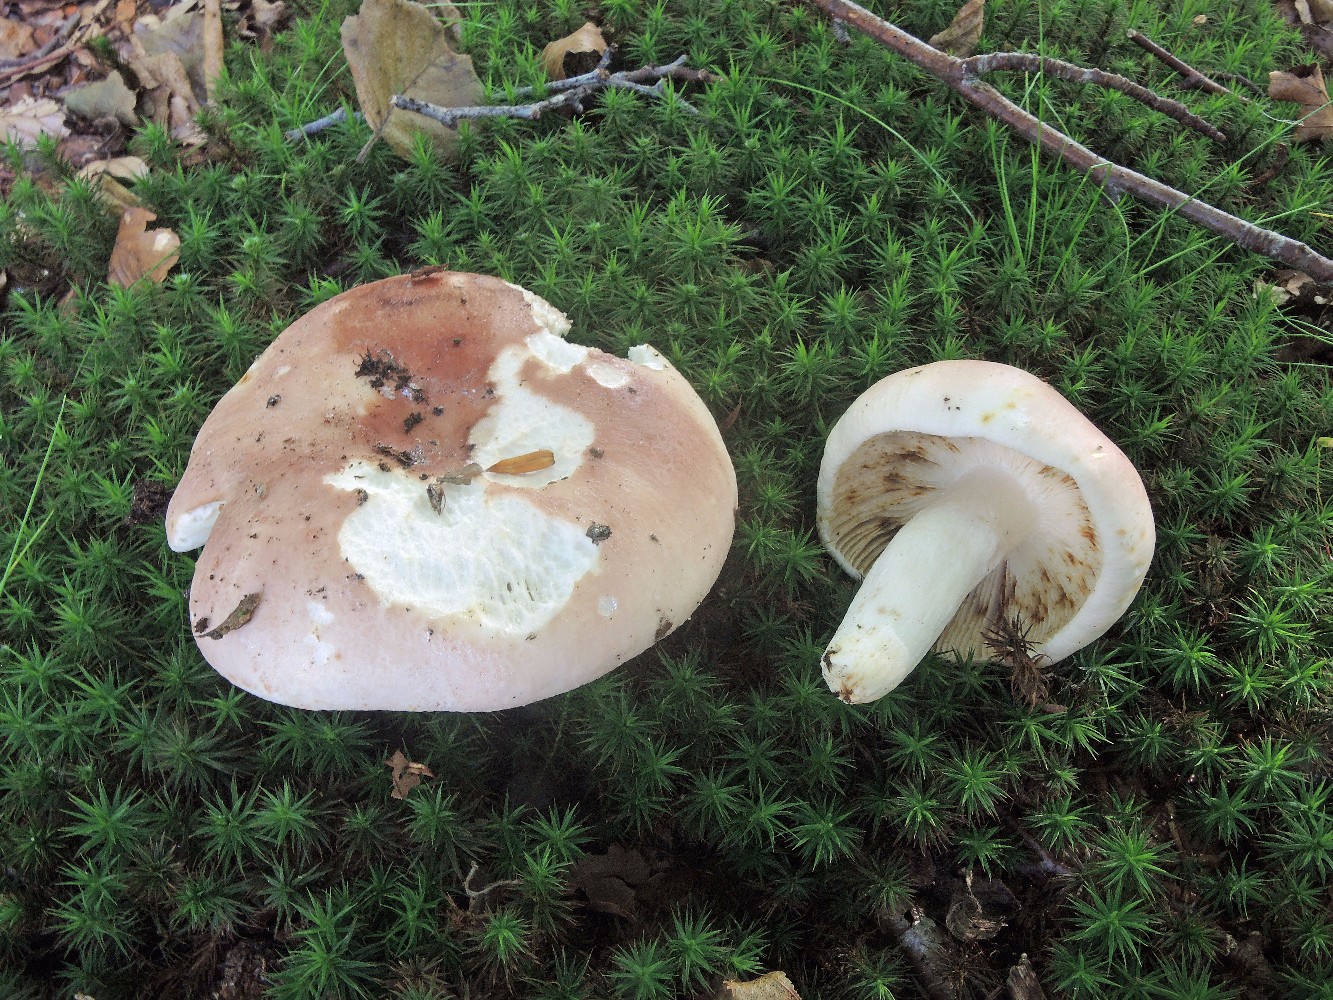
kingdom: Fungi
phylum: Basidiomycota
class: Agaricomycetes
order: Russulales
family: Russulaceae
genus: Russula
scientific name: Russula aurora
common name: rosa skørhat
